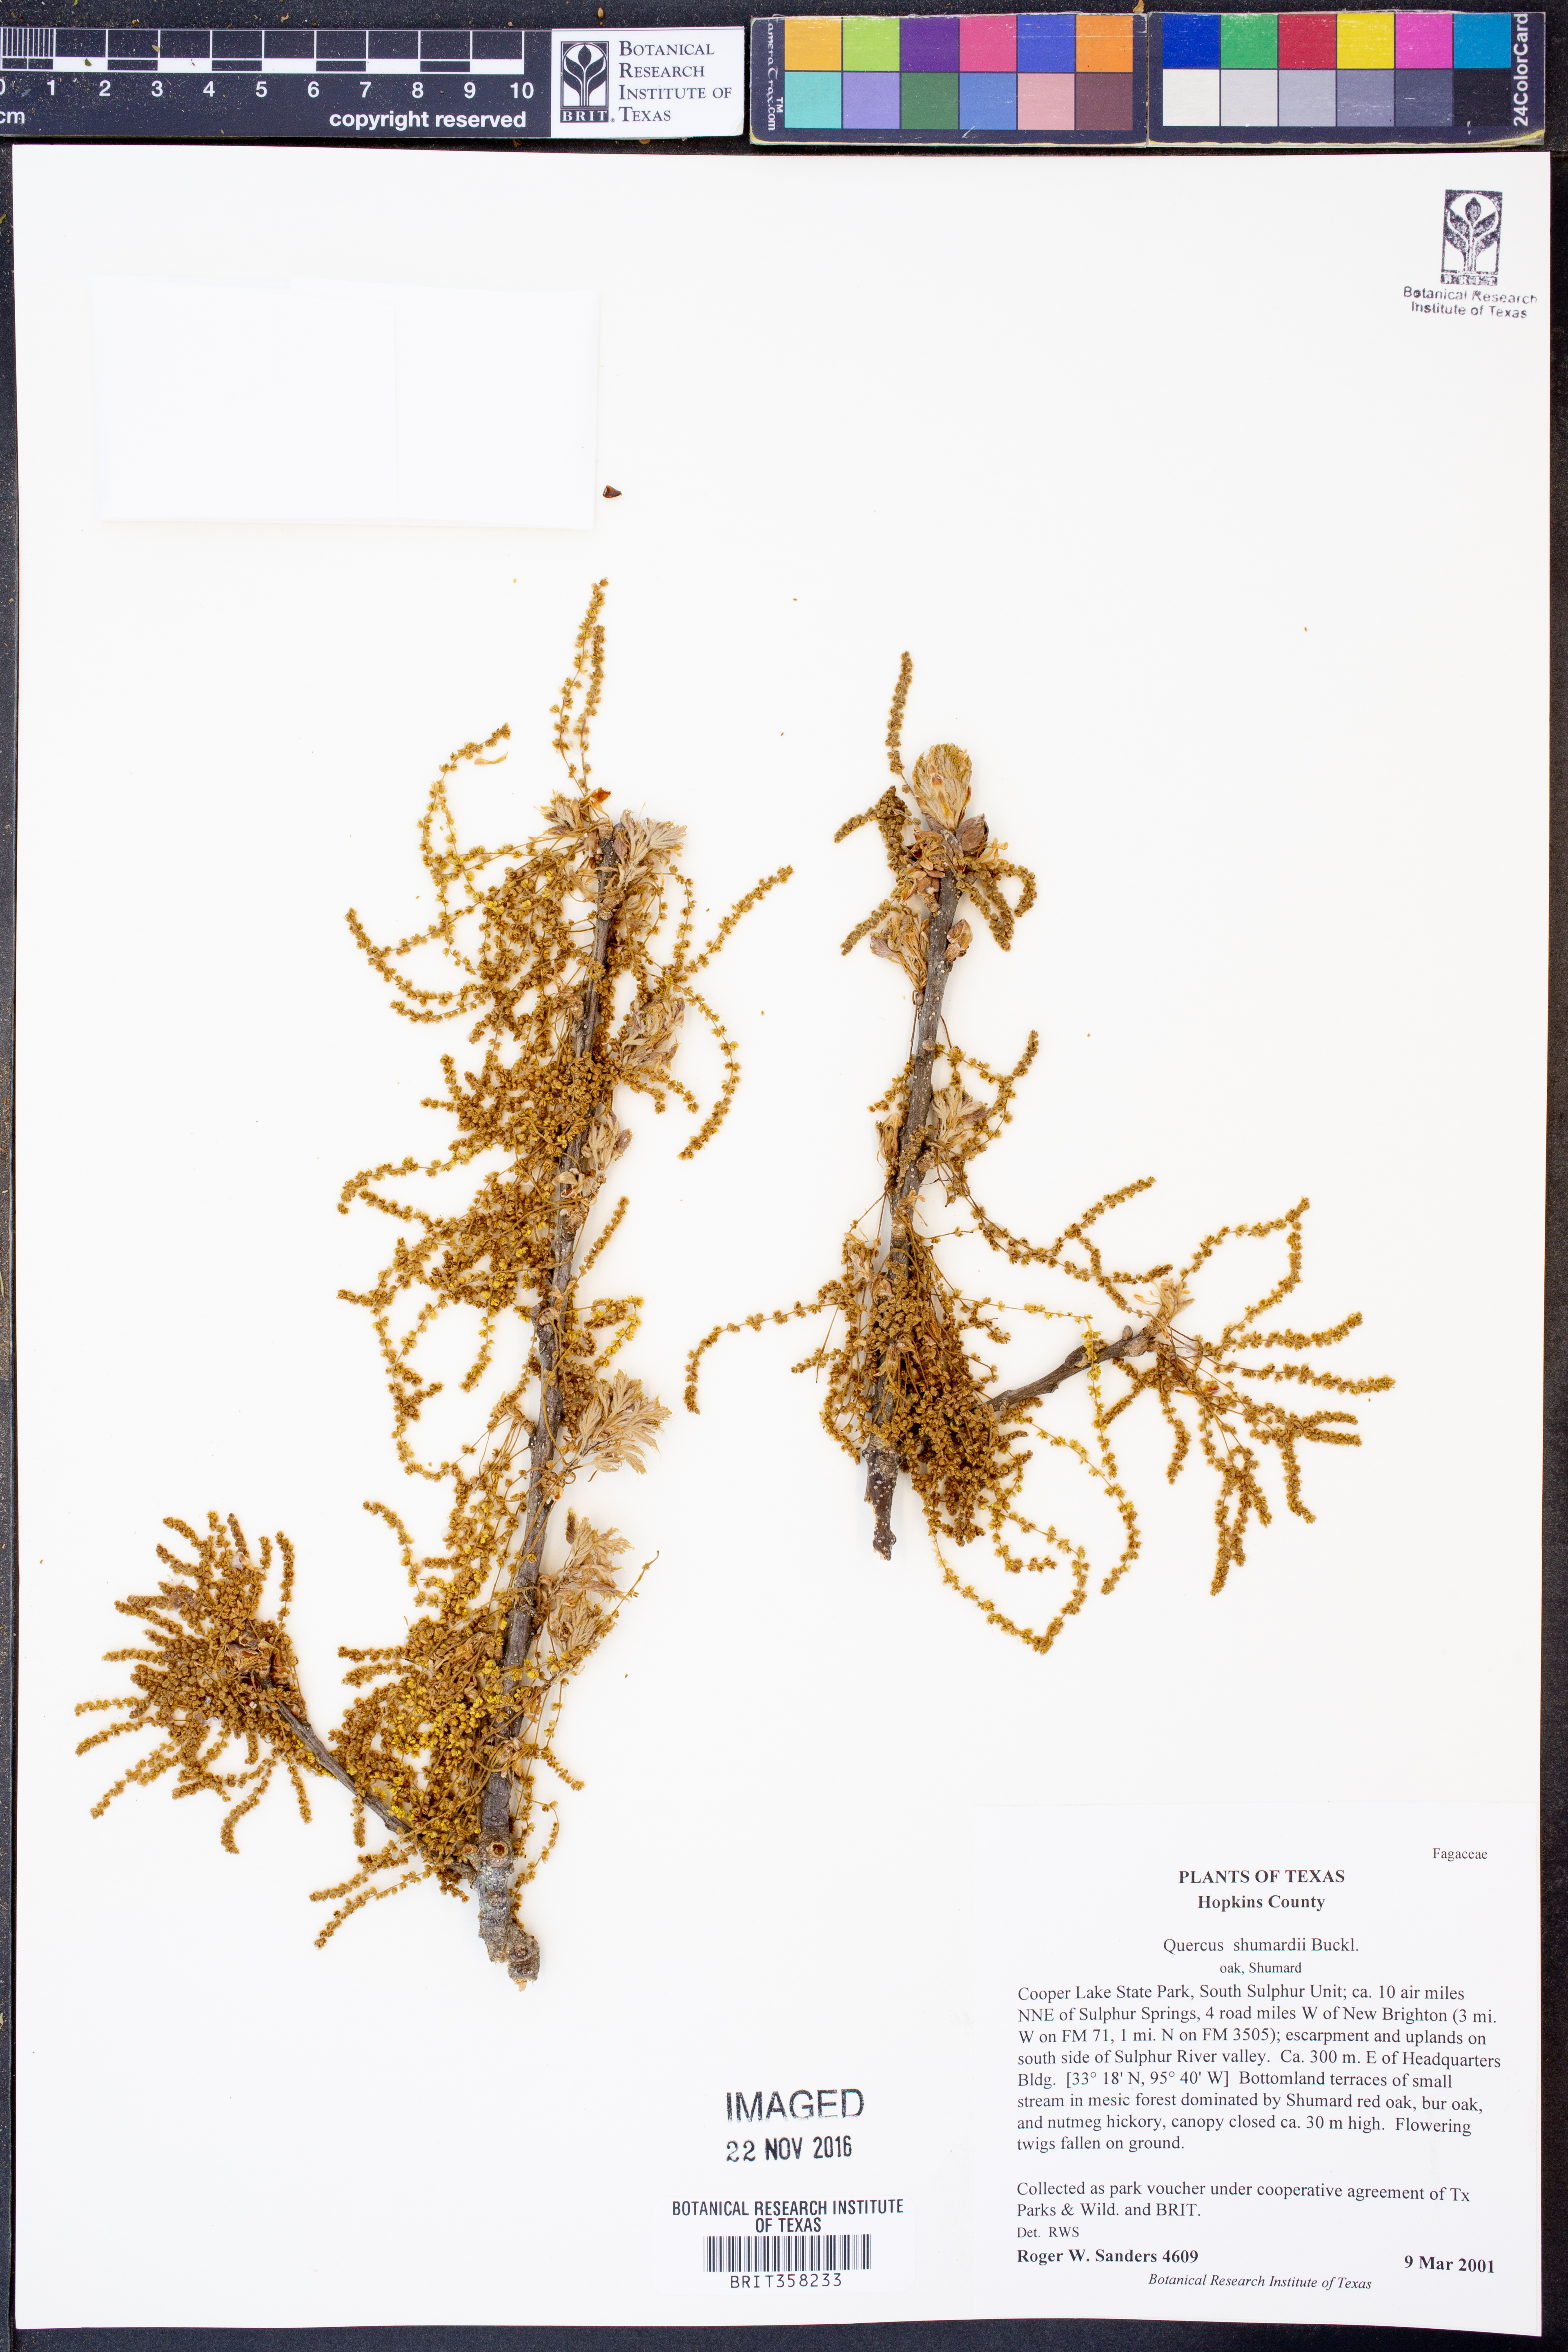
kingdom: Plantae
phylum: Tracheophyta
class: Magnoliopsida
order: Fagales
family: Fagaceae
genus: Quercus
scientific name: Quercus shumardii
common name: Shumard oak
